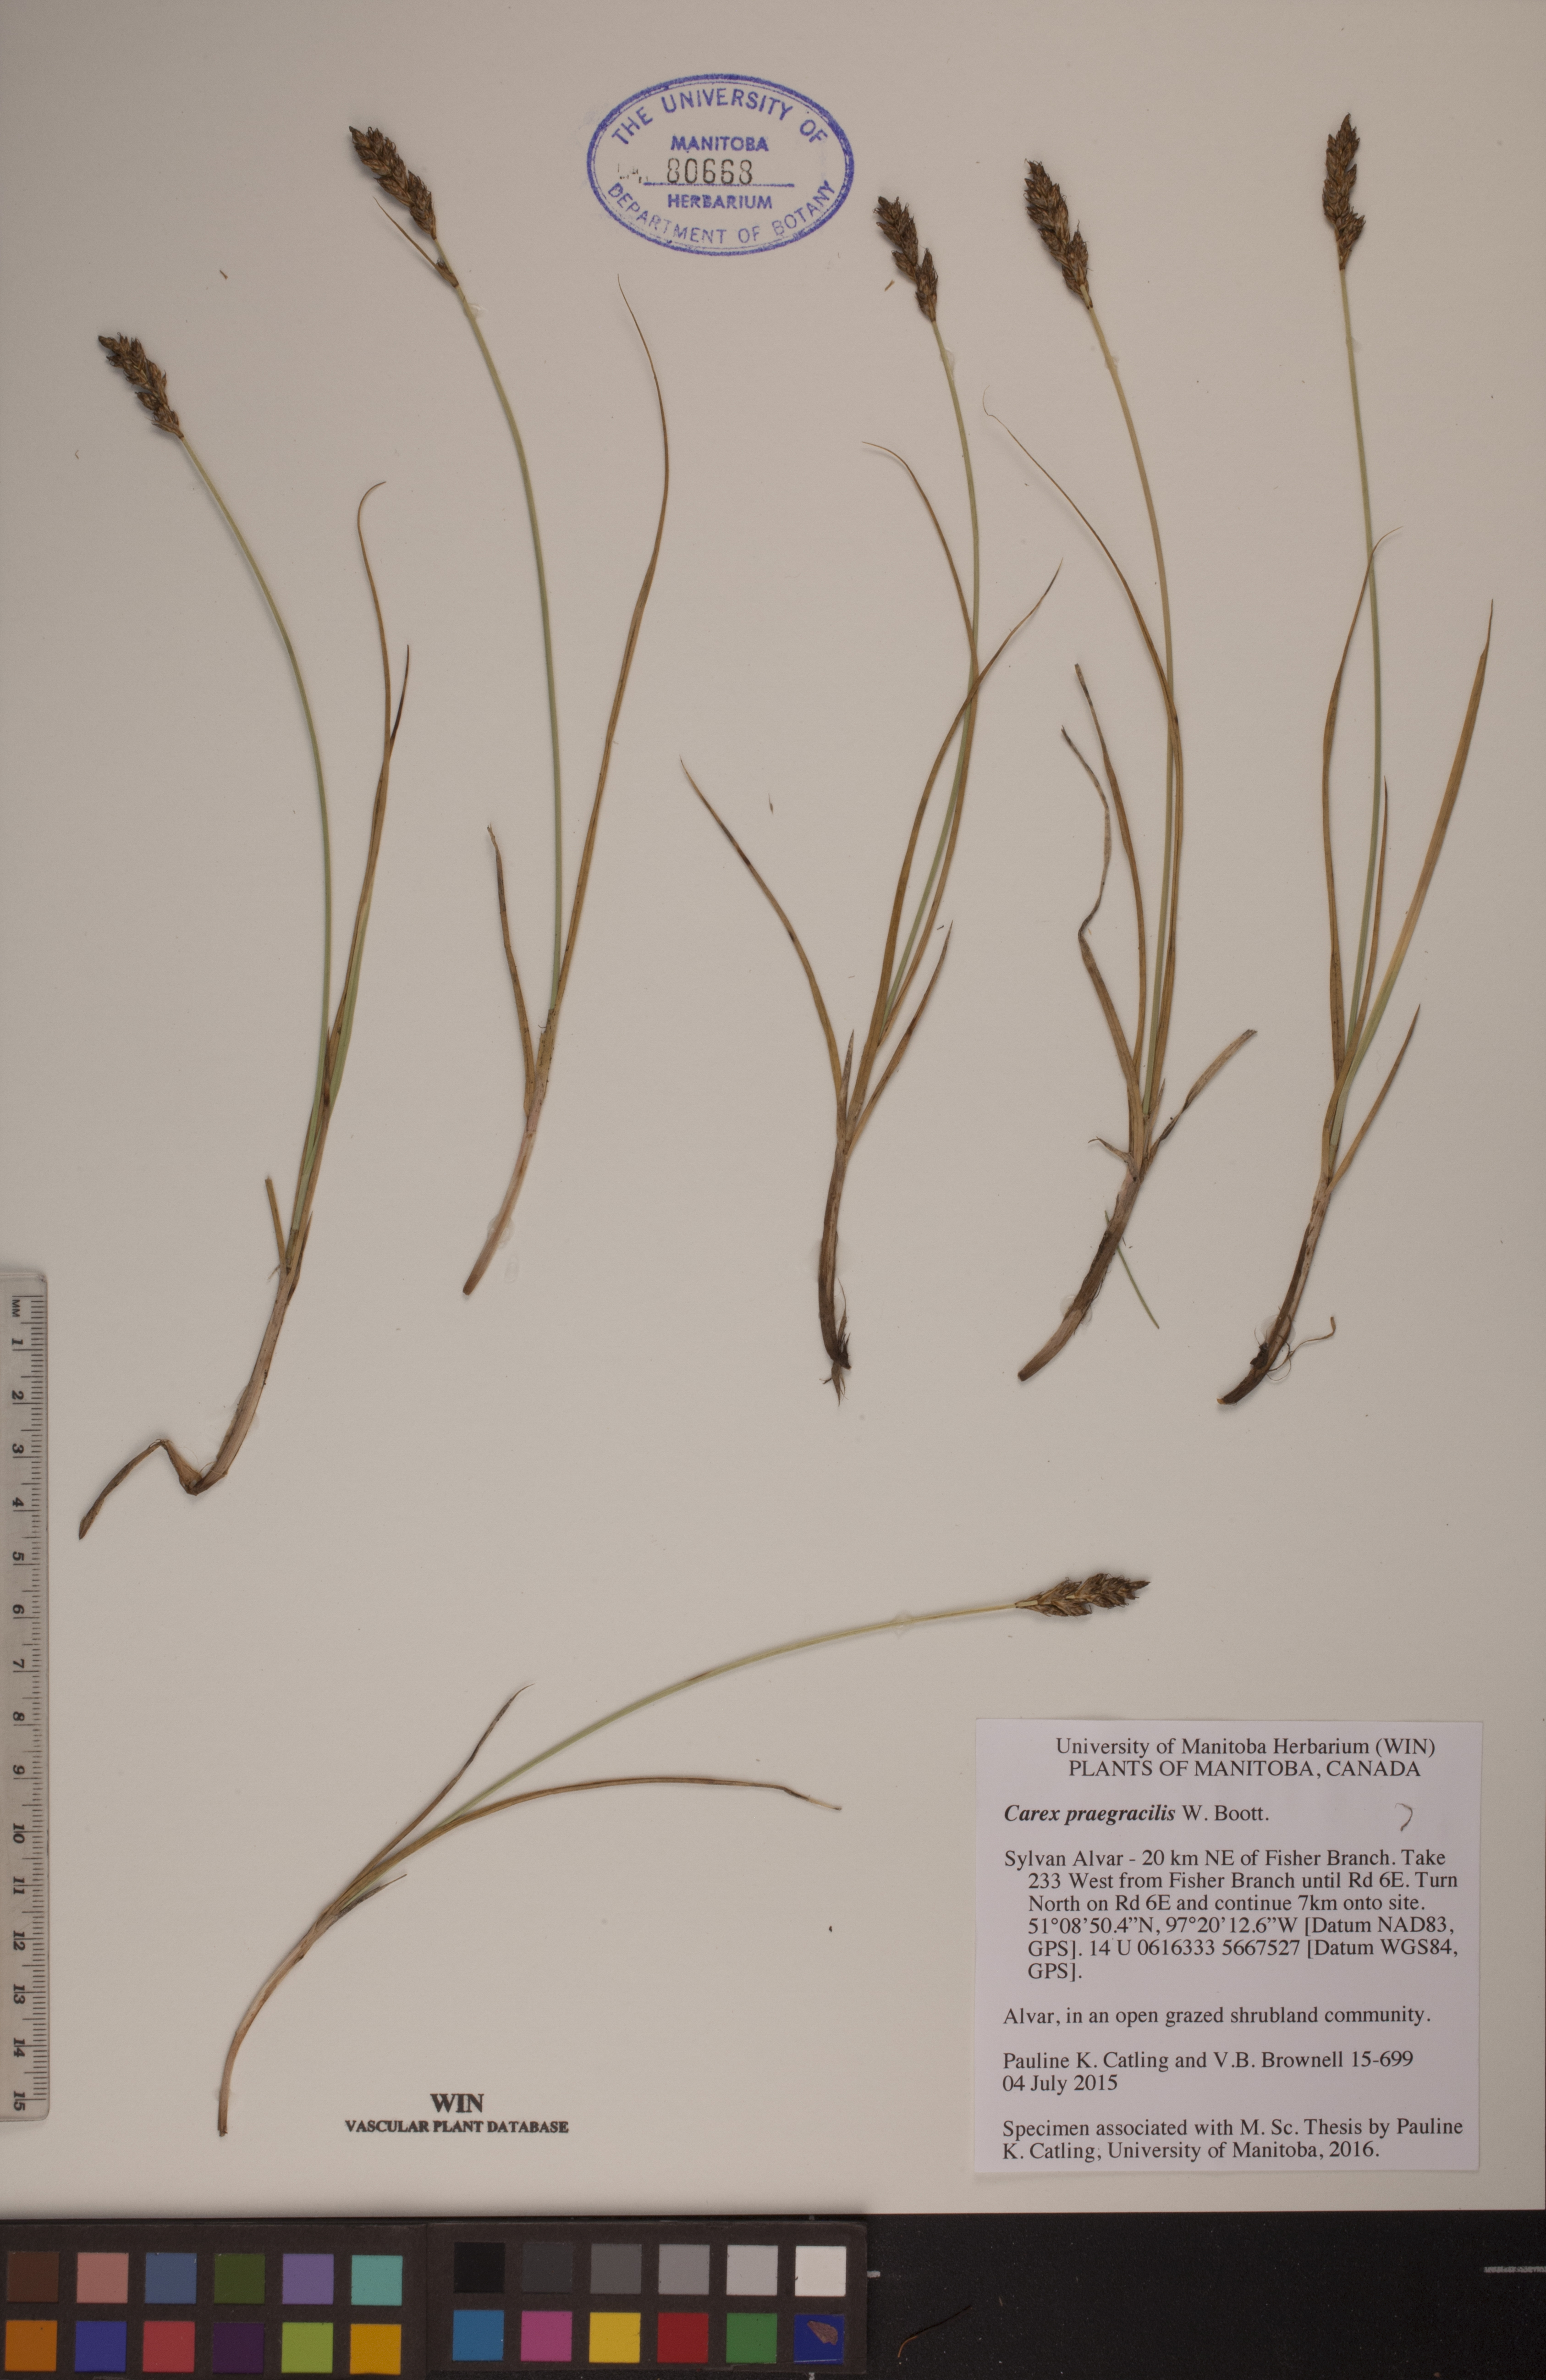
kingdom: Plantae
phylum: Tracheophyta
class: Liliopsida
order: Poales
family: Cyperaceae
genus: Carex
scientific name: Carex praegracilis
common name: Black creeper sedge
